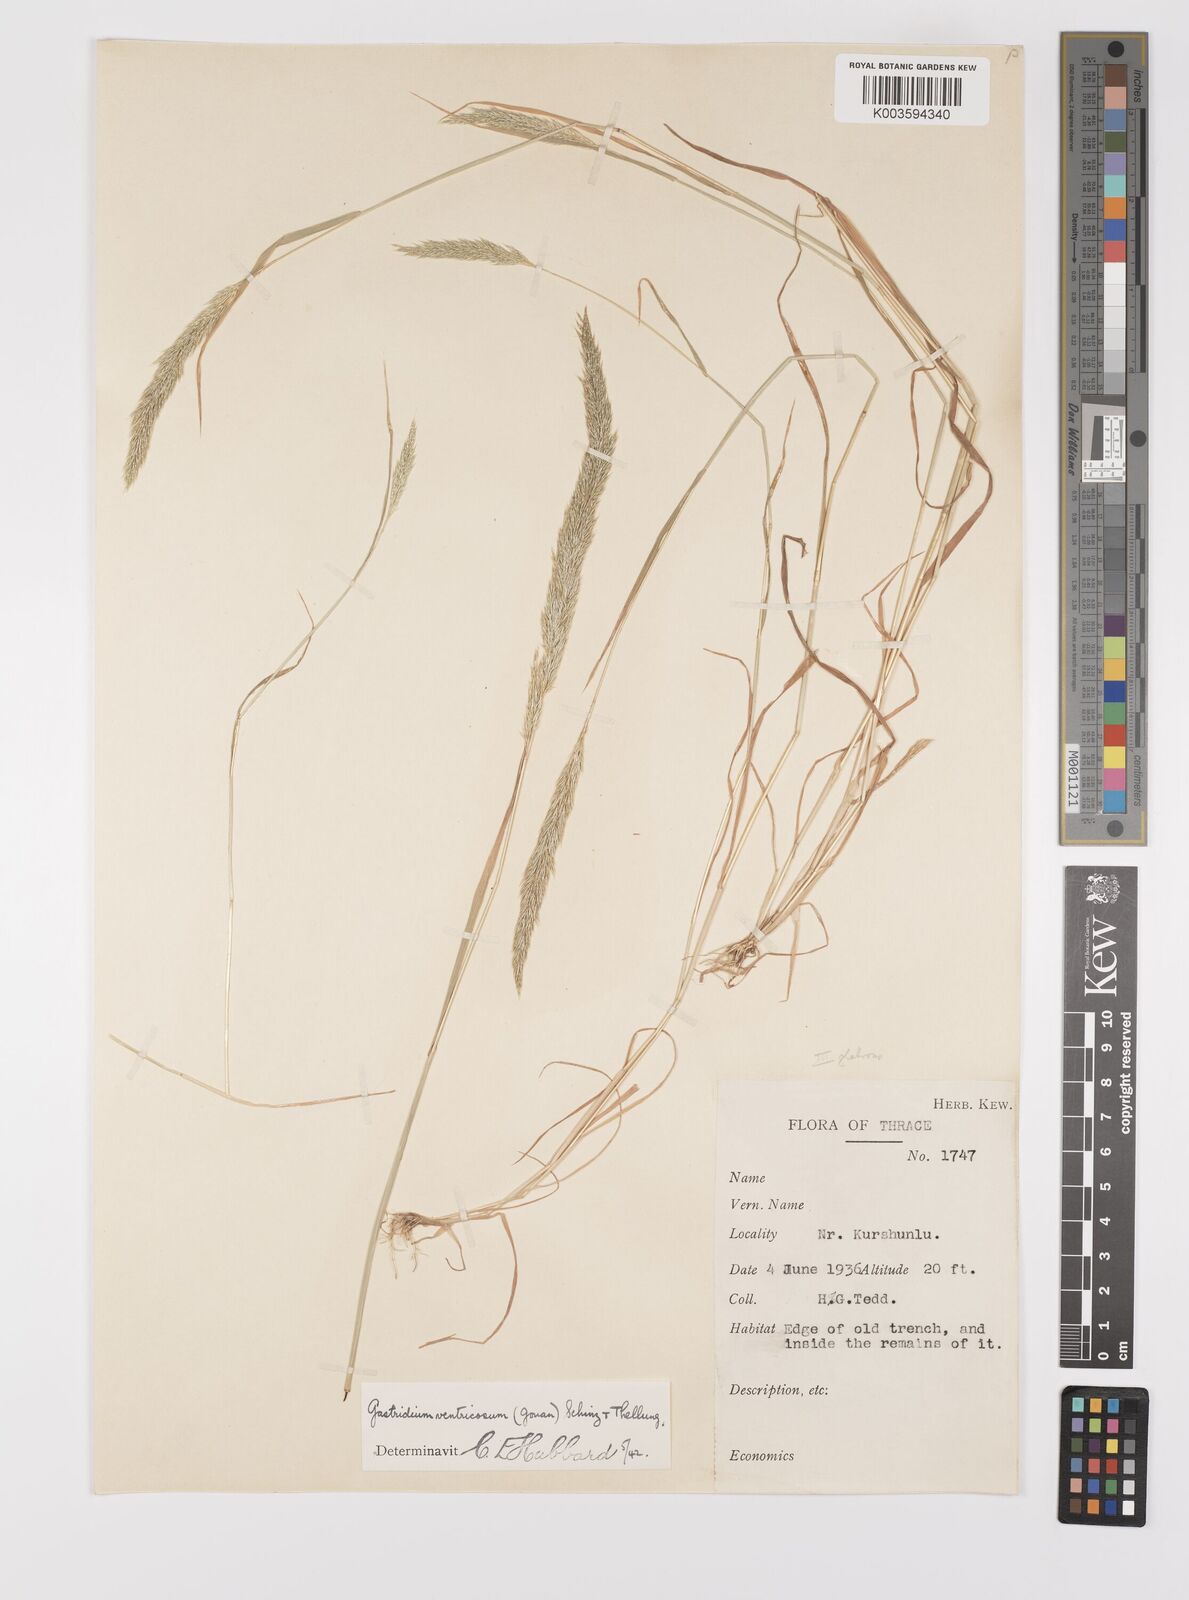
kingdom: Plantae
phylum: Tracheophyta
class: Liliopsida
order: Poales
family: Poaceae
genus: Gastridium
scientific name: Gastridium ventricosum
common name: Nit-grass
